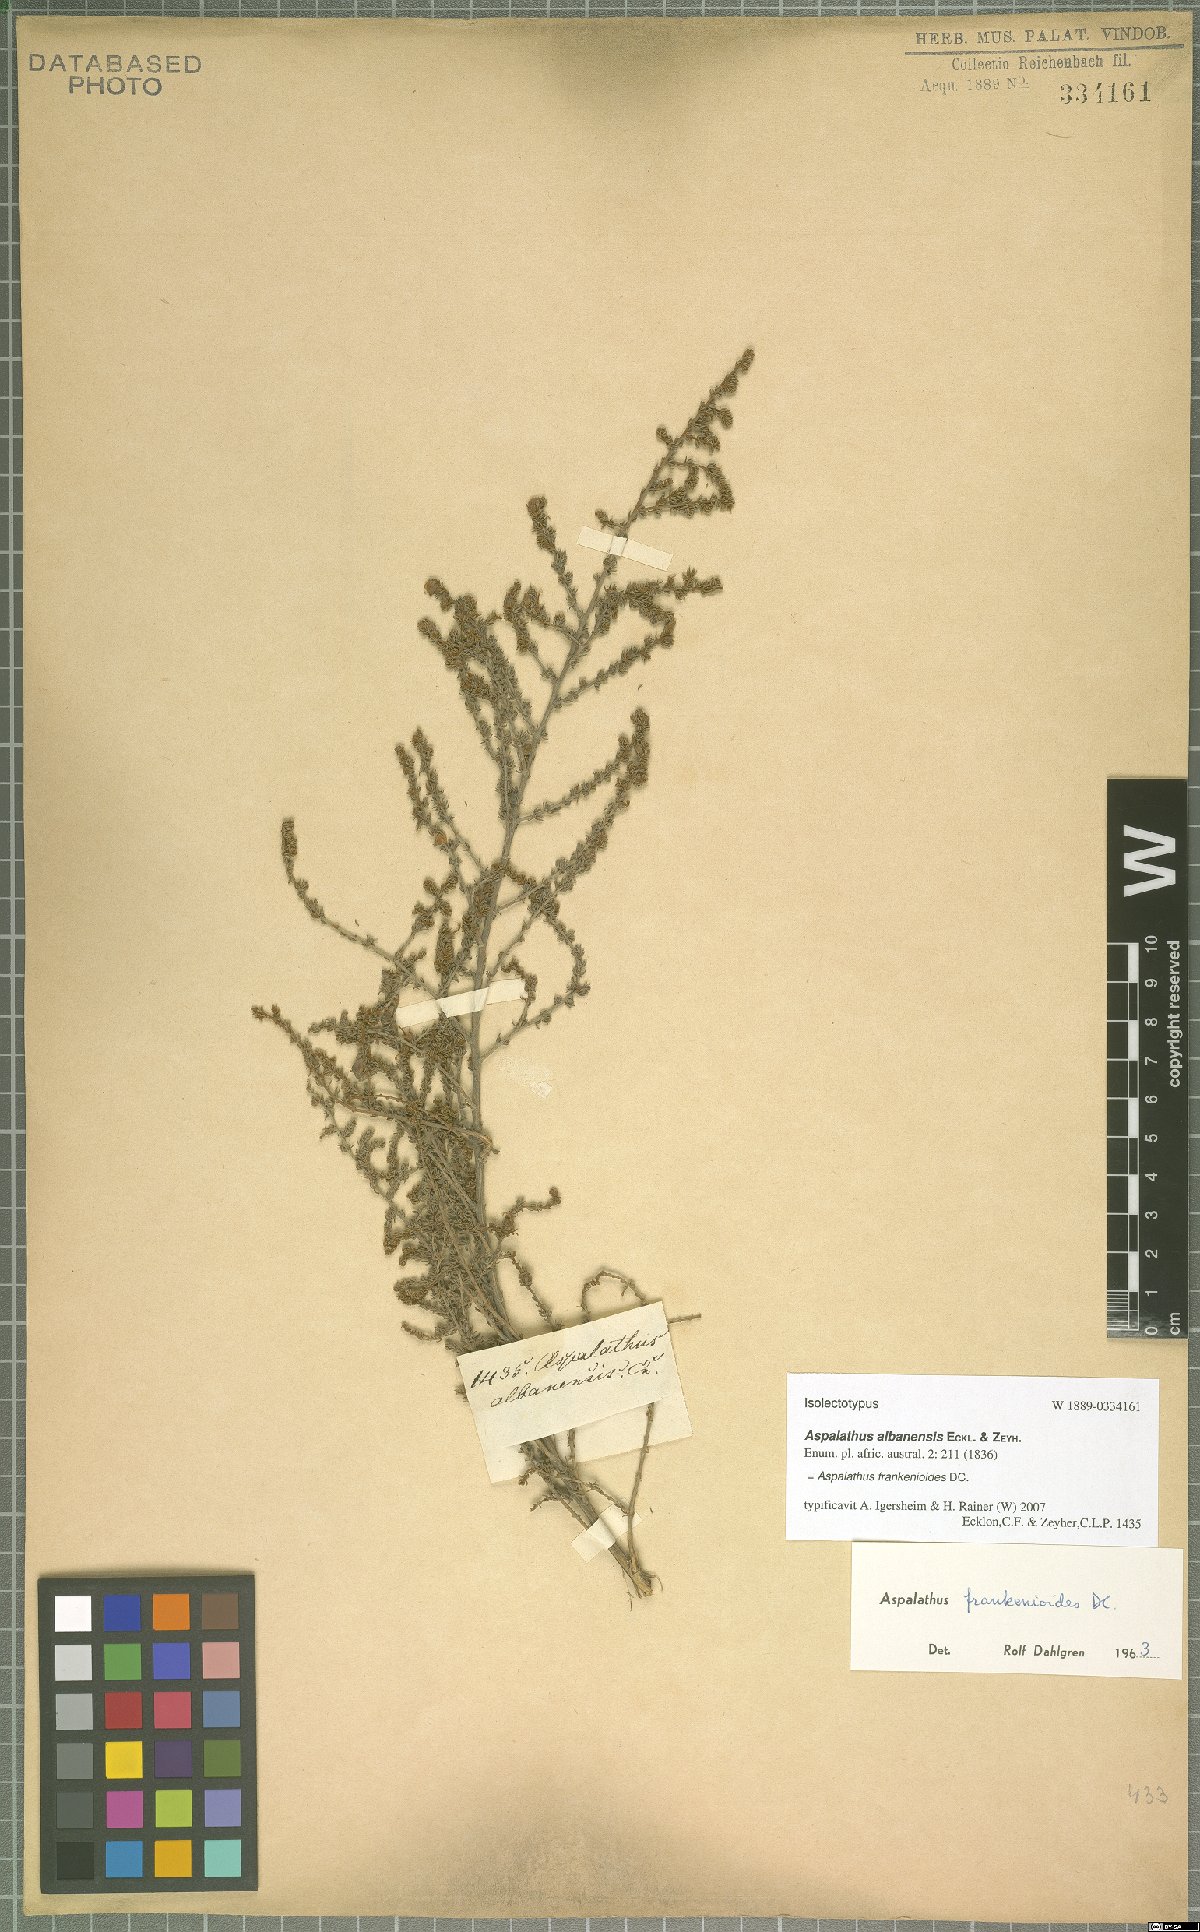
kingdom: Plantae
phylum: Tracheophyta
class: Magnoliopsida
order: Fabales
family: Fabaceae
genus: Aspalathus
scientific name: Aspalathus frankenioides
